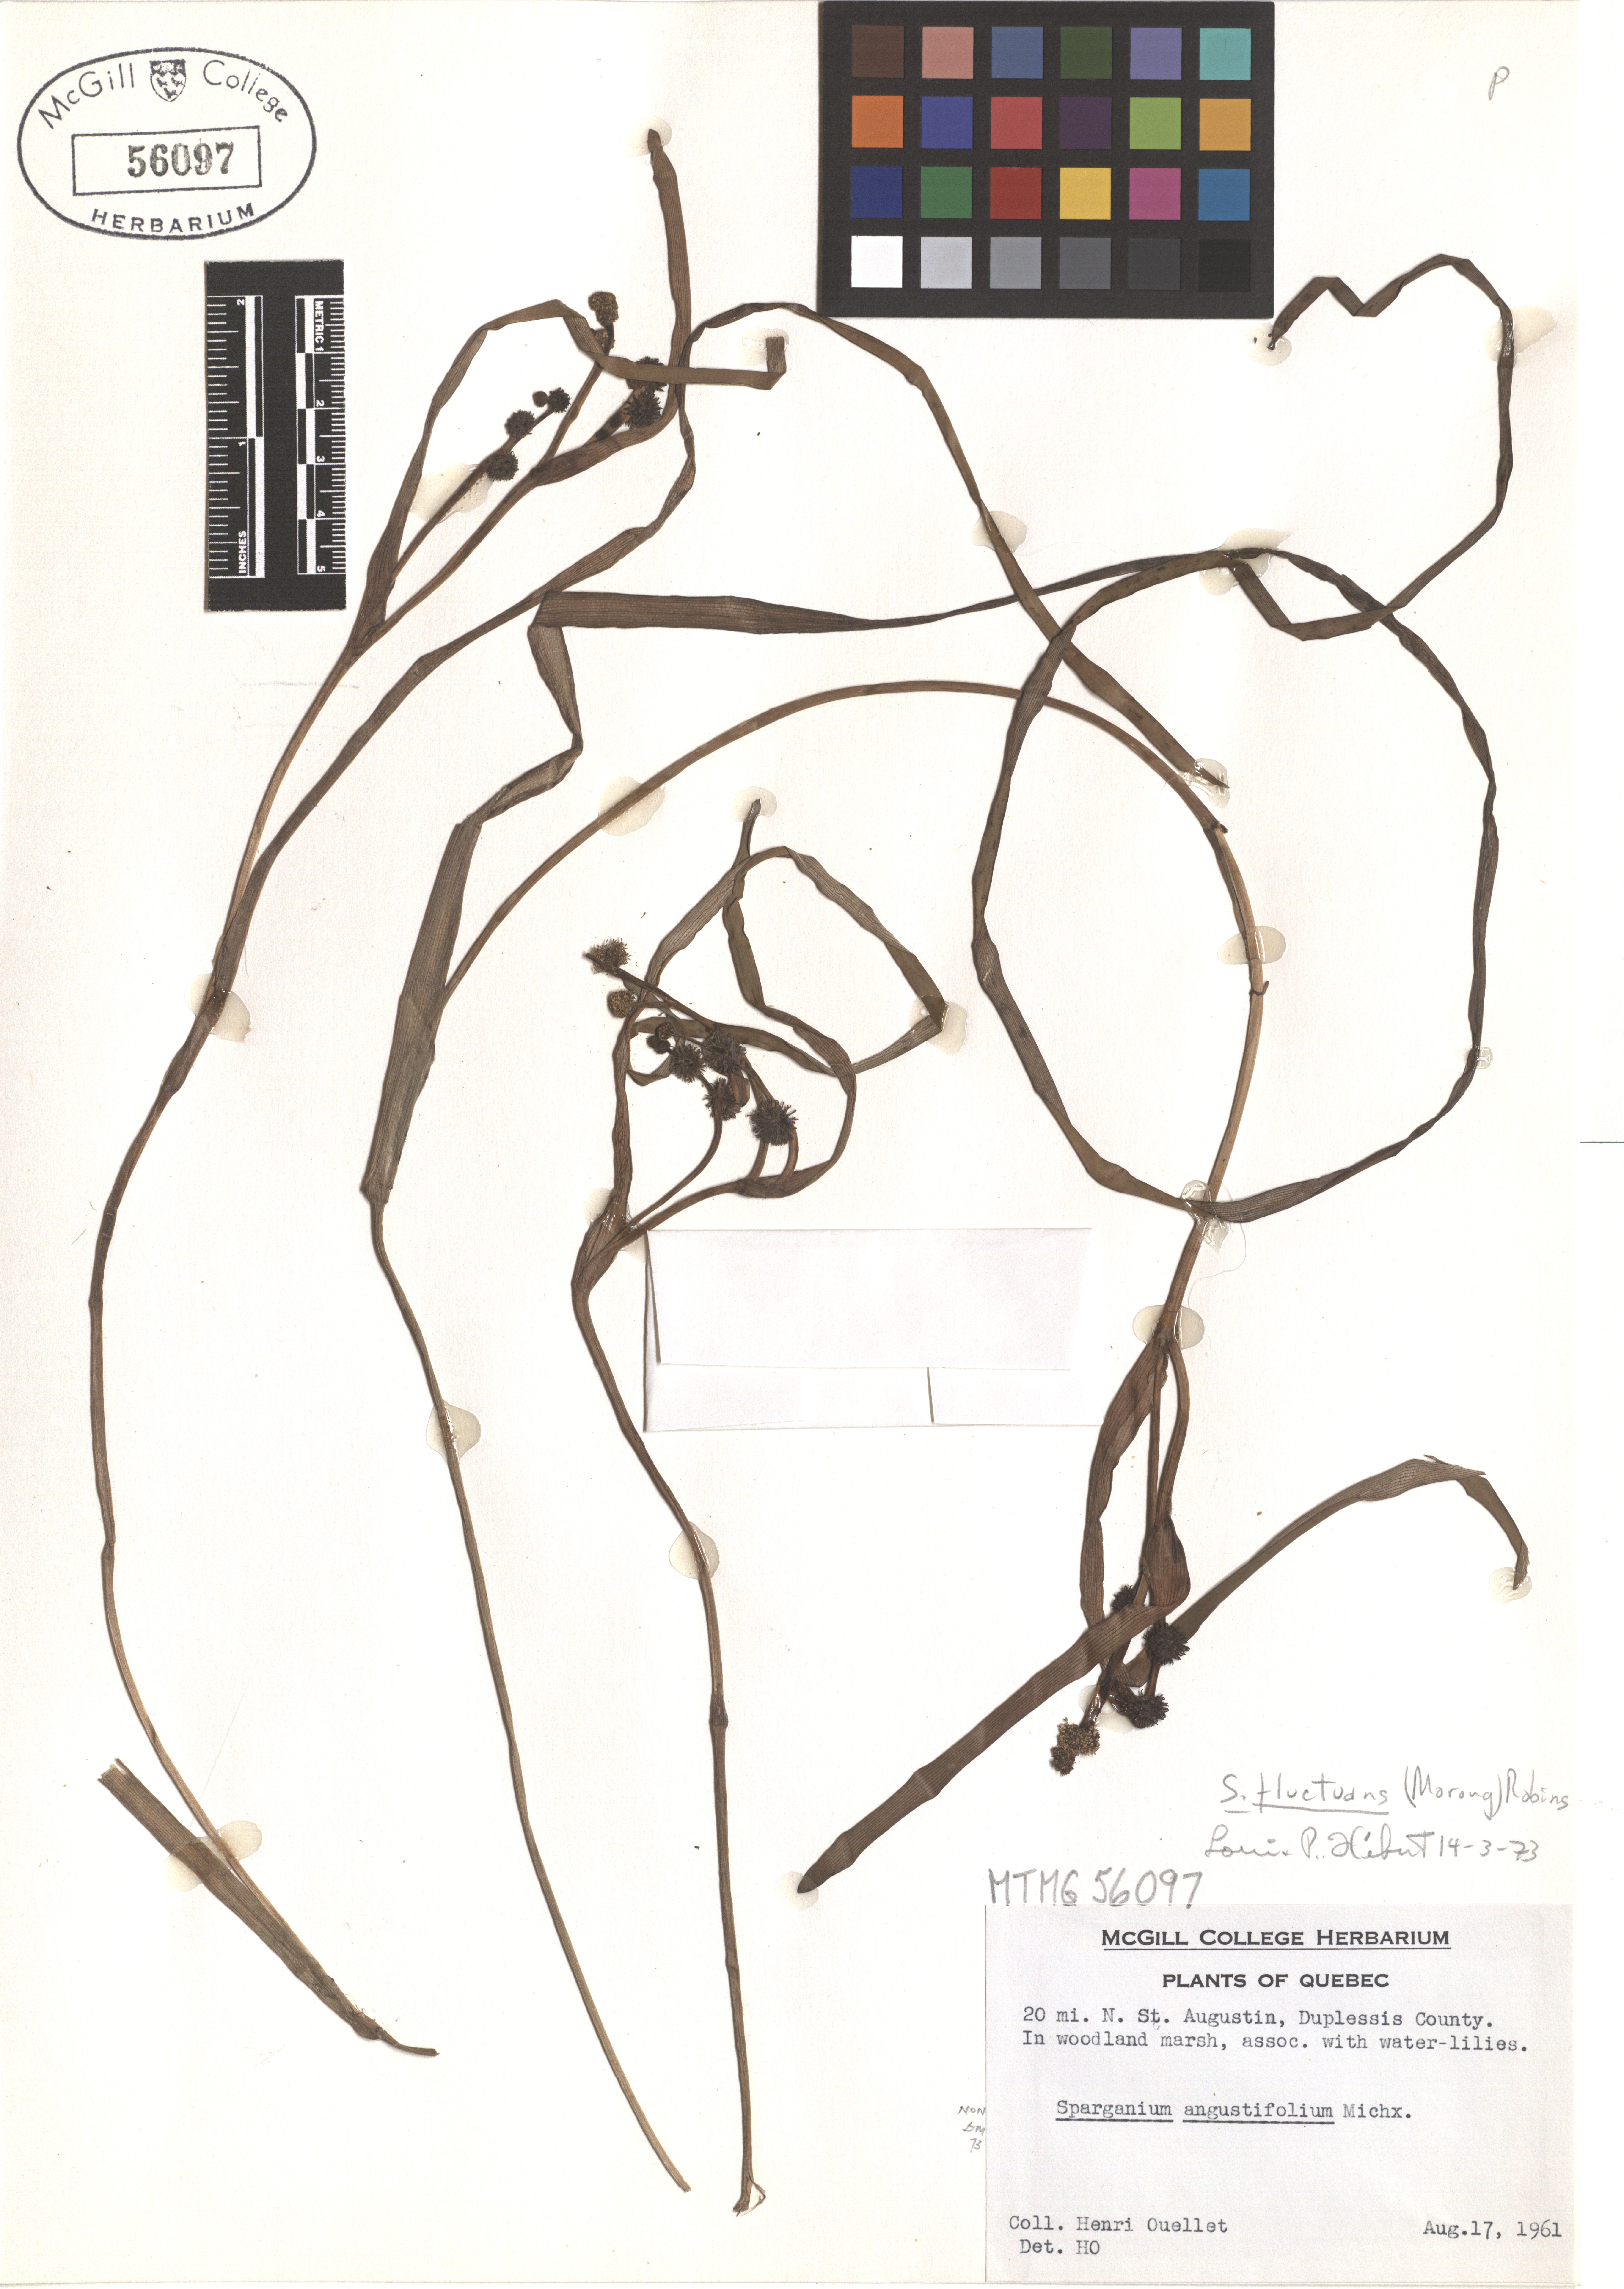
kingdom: Plantae
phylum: Tracheophyta
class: Liliopsida
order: Poales
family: Typhaceae
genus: Sparganium
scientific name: Sparganium fluctuans
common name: Floating burreed
